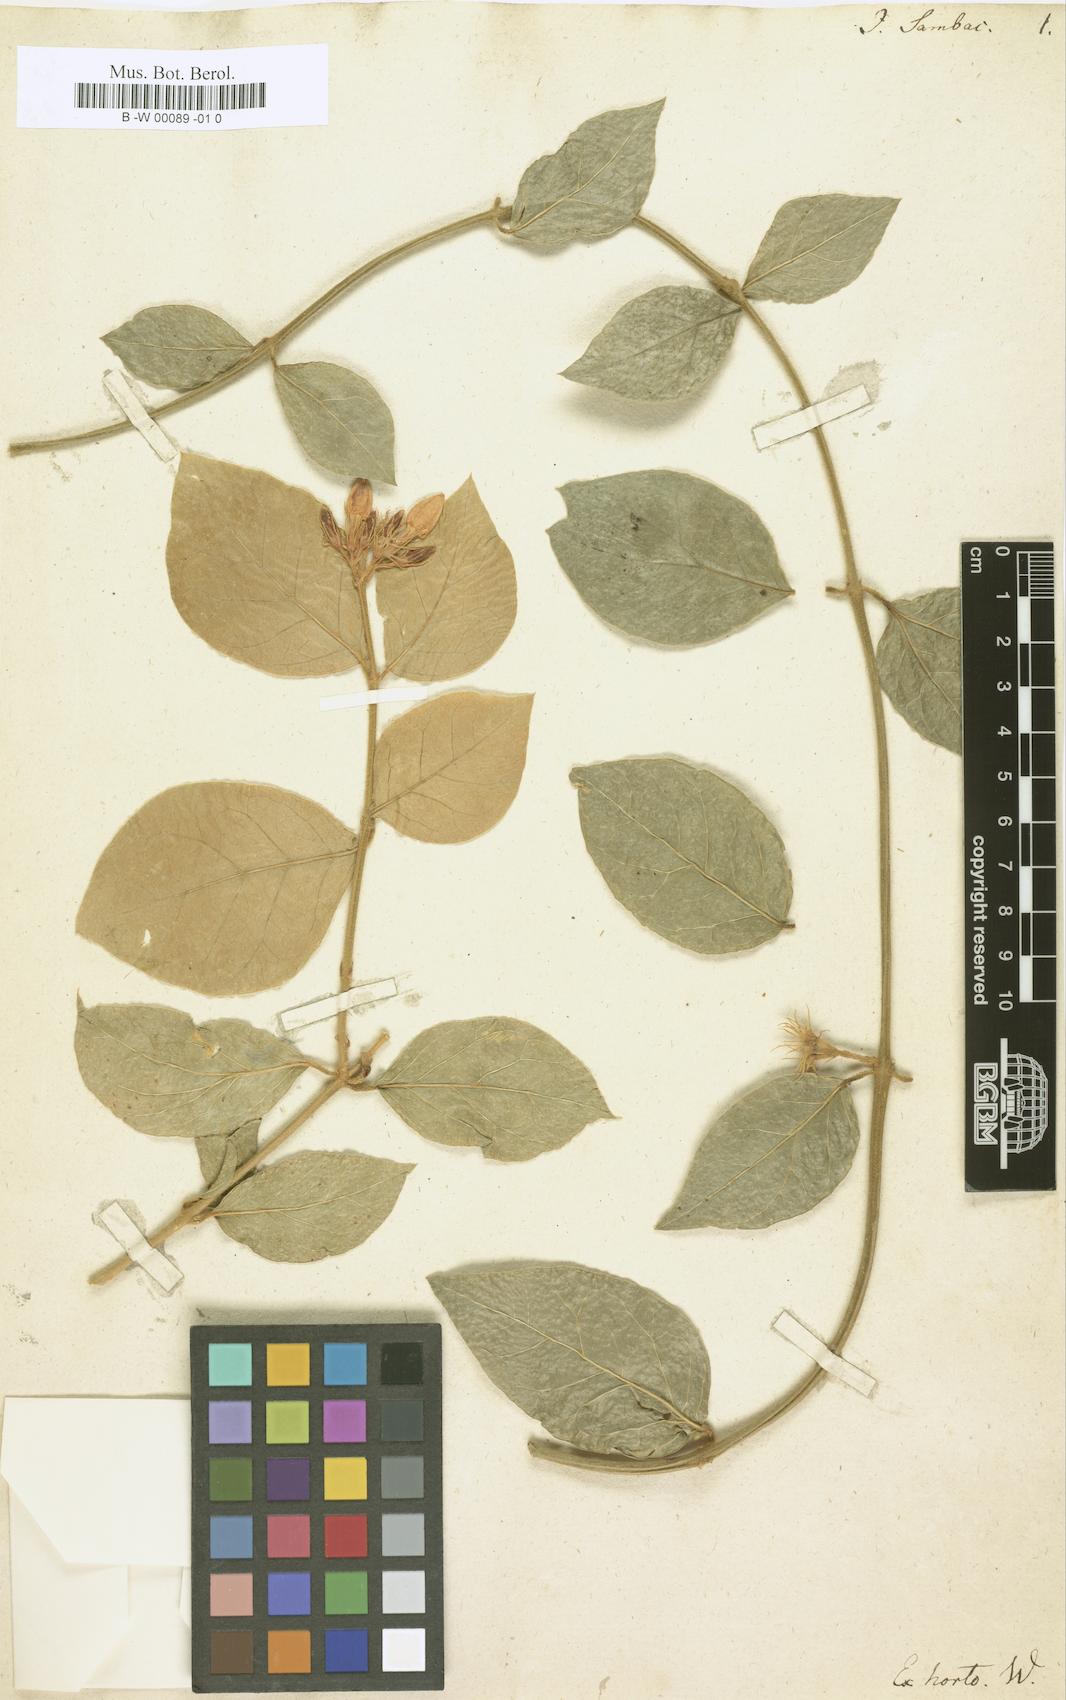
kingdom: Plantae
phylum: Tracheophyta
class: Magnoliopsida
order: Lamiales
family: Oleaceae
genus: Jasminum
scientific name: Jasminum sambac
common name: Arabian jasmine
